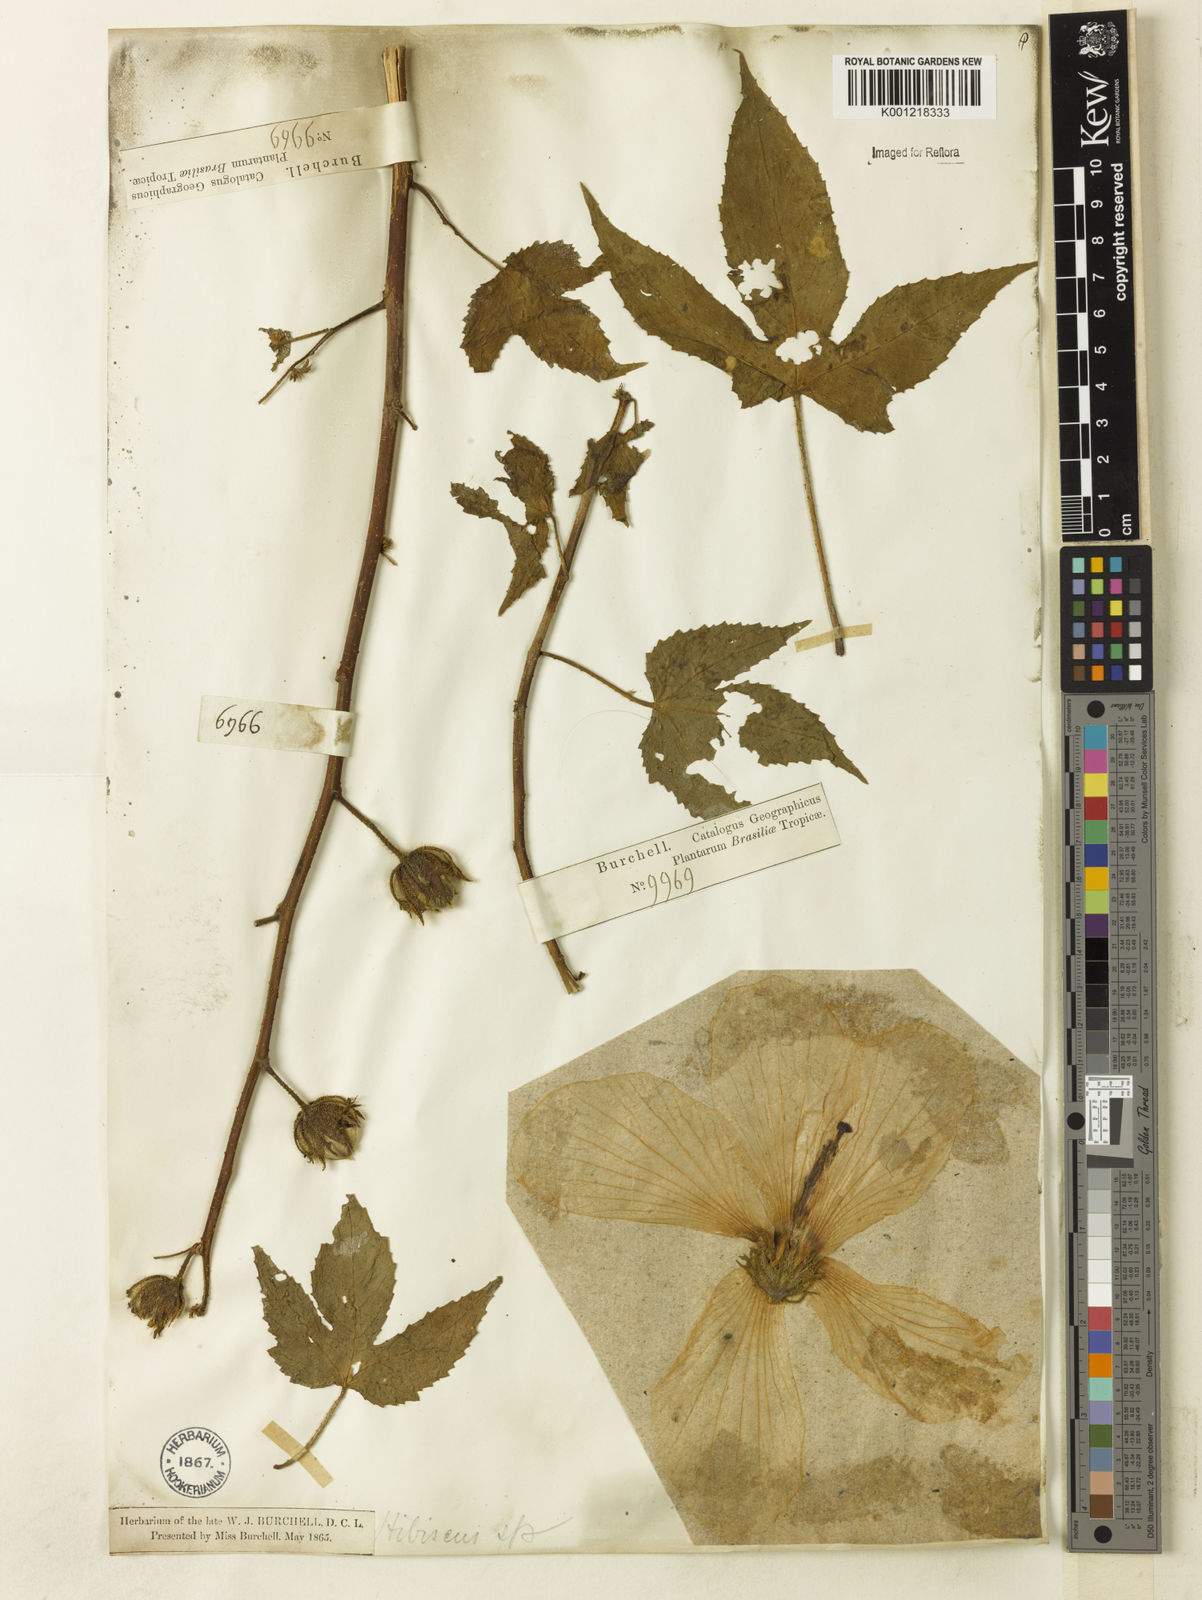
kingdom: Plantae
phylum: Tracheophyta
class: Magnoliopsida
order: Malvales
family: Malvaceae
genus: Hibiscus
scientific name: Hibiscus bifurcatus
